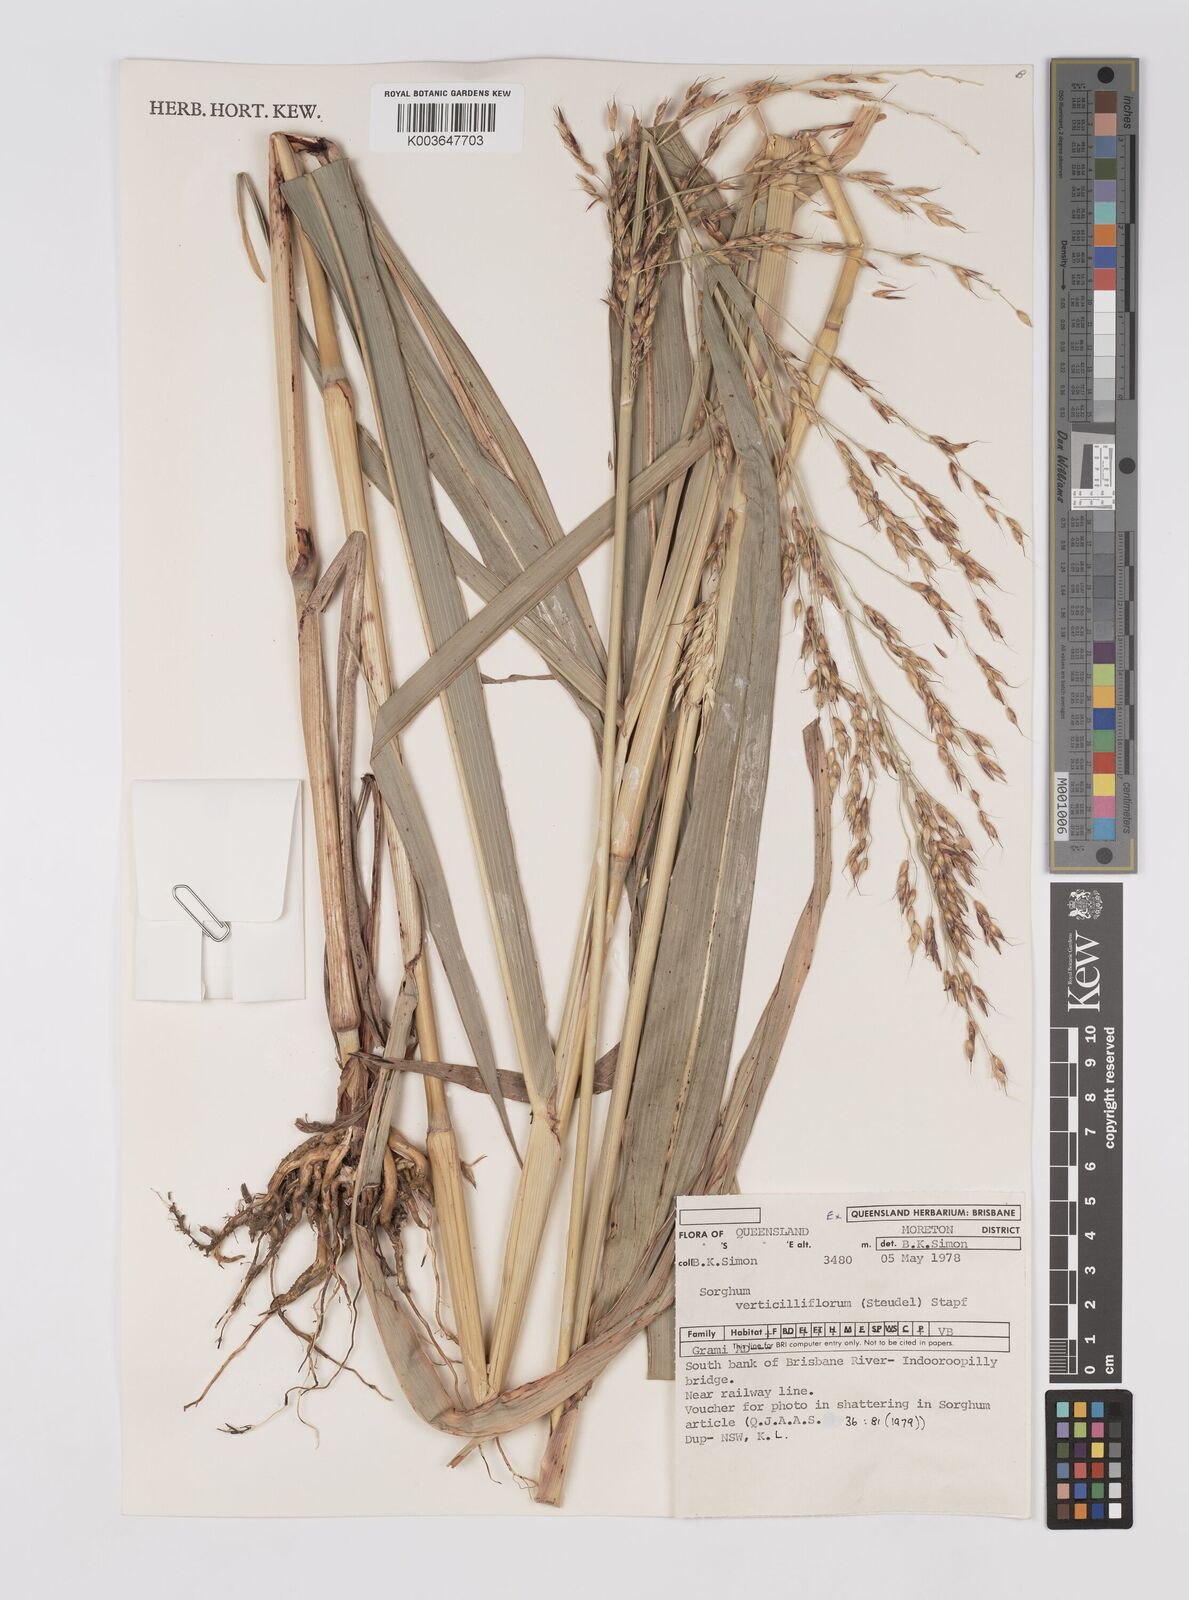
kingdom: Plantae
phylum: Tracheophyta
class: Liliopsida
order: Poales
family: Poaceae
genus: Sorghum
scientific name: Sorghum arundinaceum
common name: Sorghum
